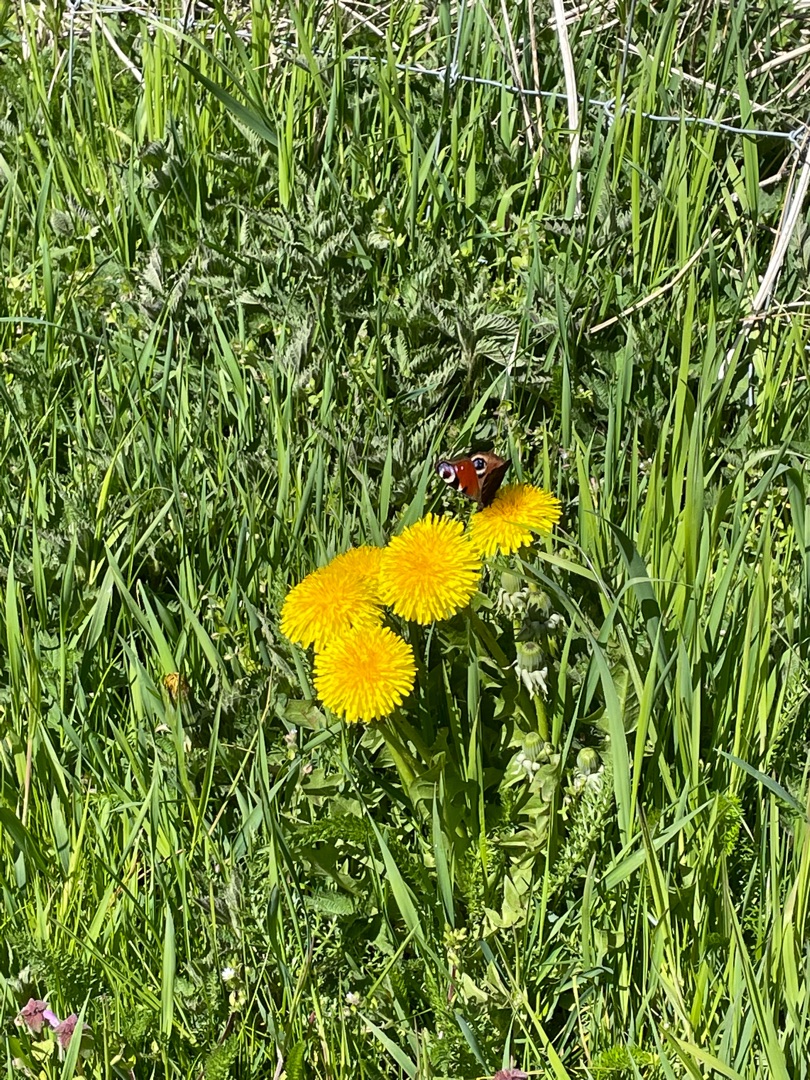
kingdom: Animalia
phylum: Arthropoda
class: Insecta
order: Lepidoptera
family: Nymphalidae
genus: Aglais
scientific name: Aglais io
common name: Dagpåfugleøje
